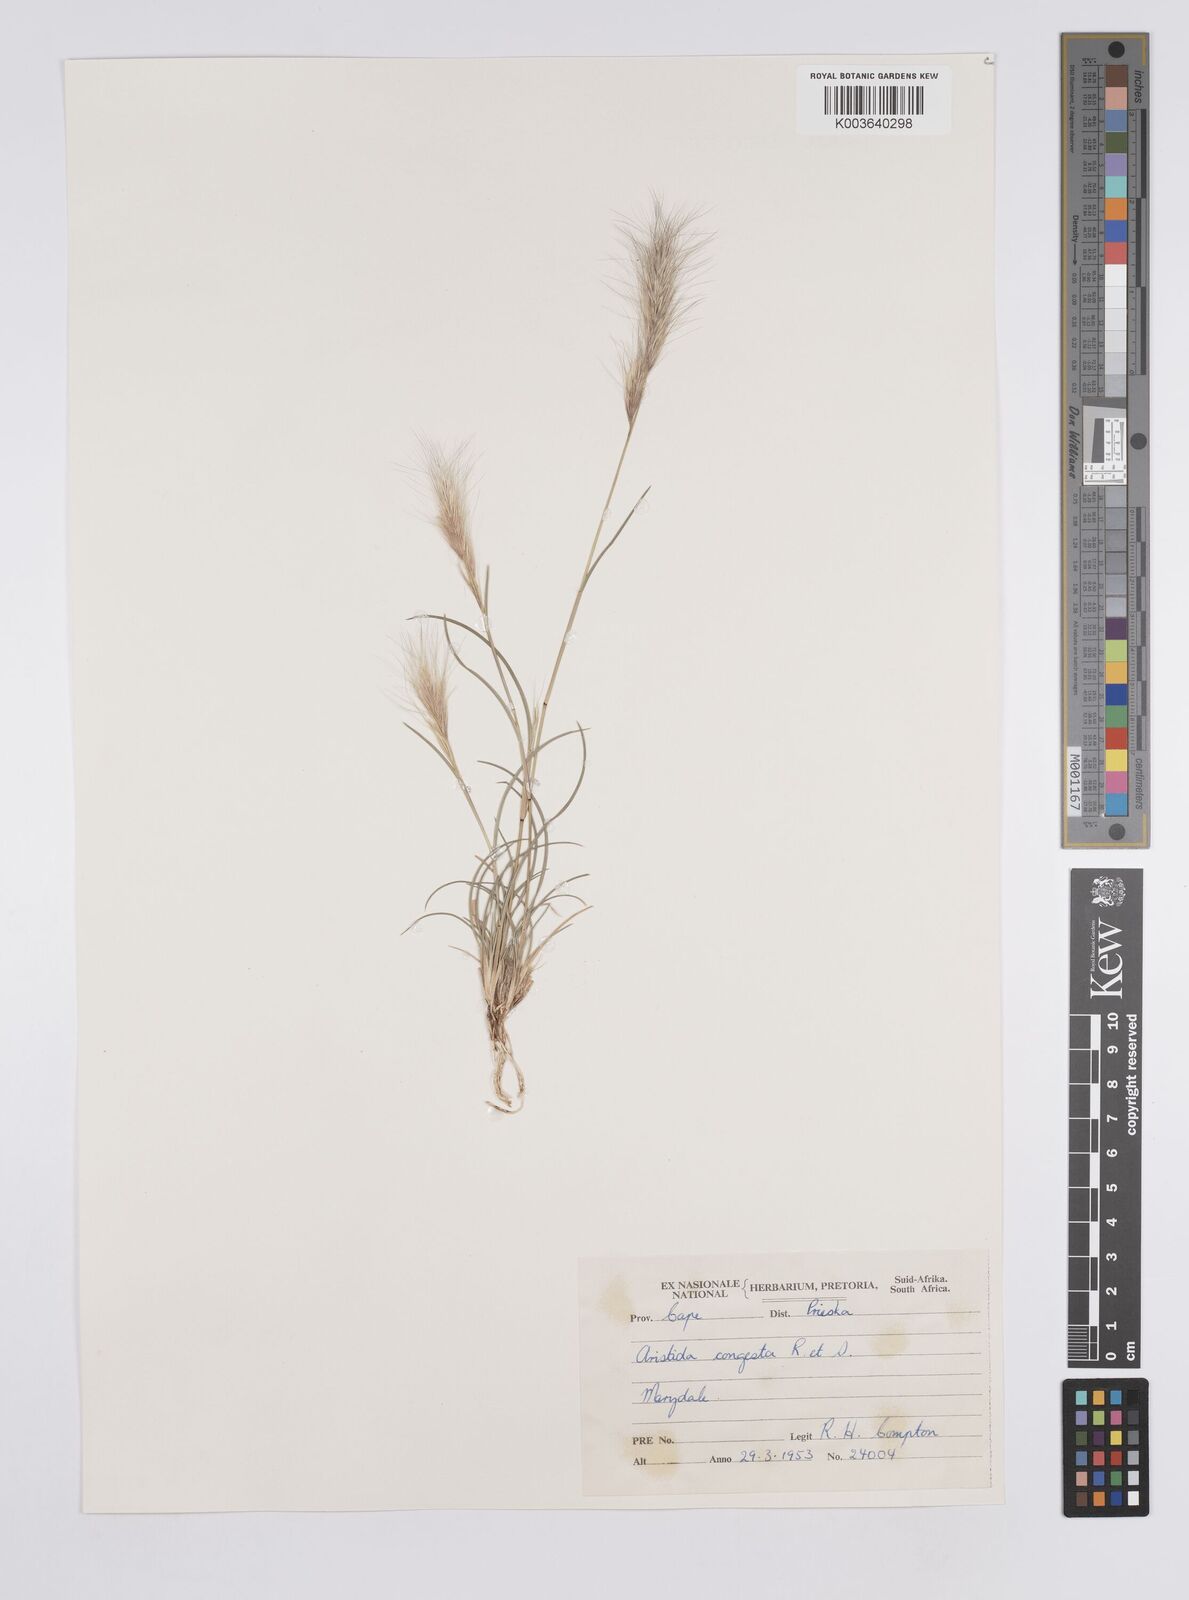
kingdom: Plantae
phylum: Tracheophyta
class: Liliopsida
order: Poales
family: Poaceae
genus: Aristida
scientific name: Aristida congesta
